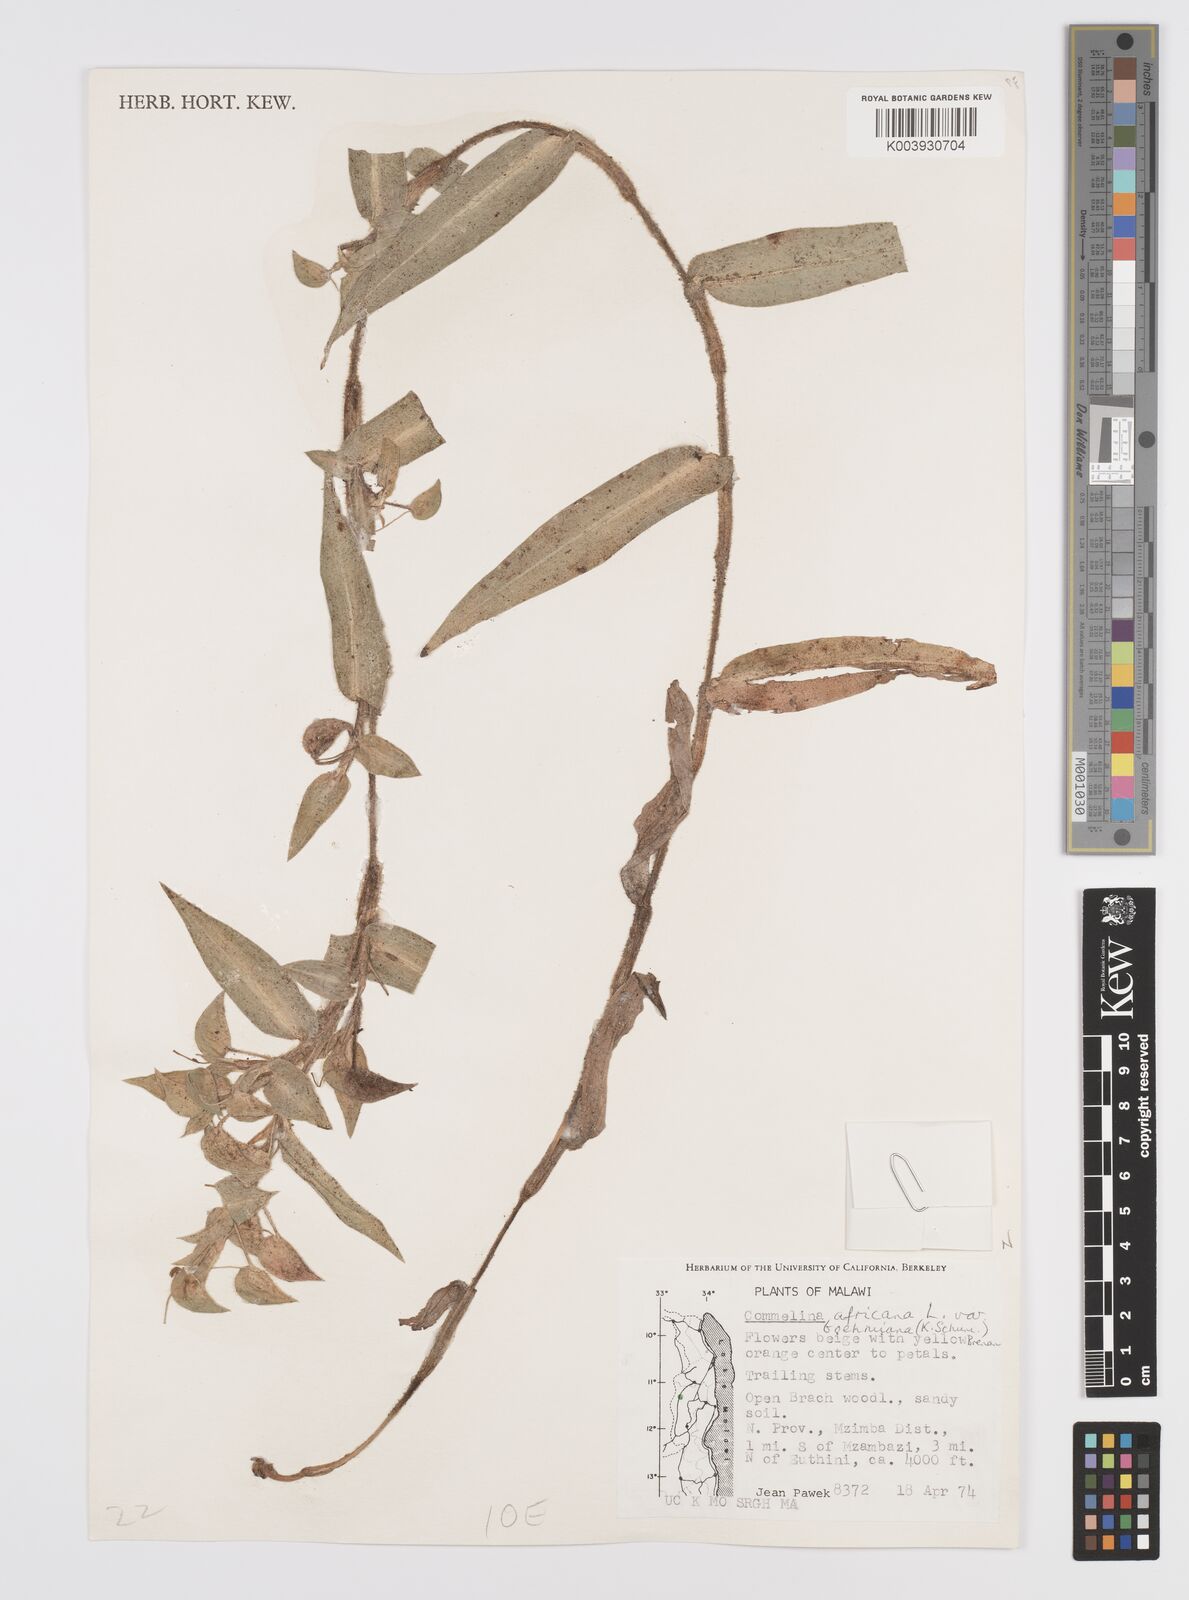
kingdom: Plantae
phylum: Tracheophyta
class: Liliopsida
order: Commelinales
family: Commelinaceae
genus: Commelina
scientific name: Commelina africana
